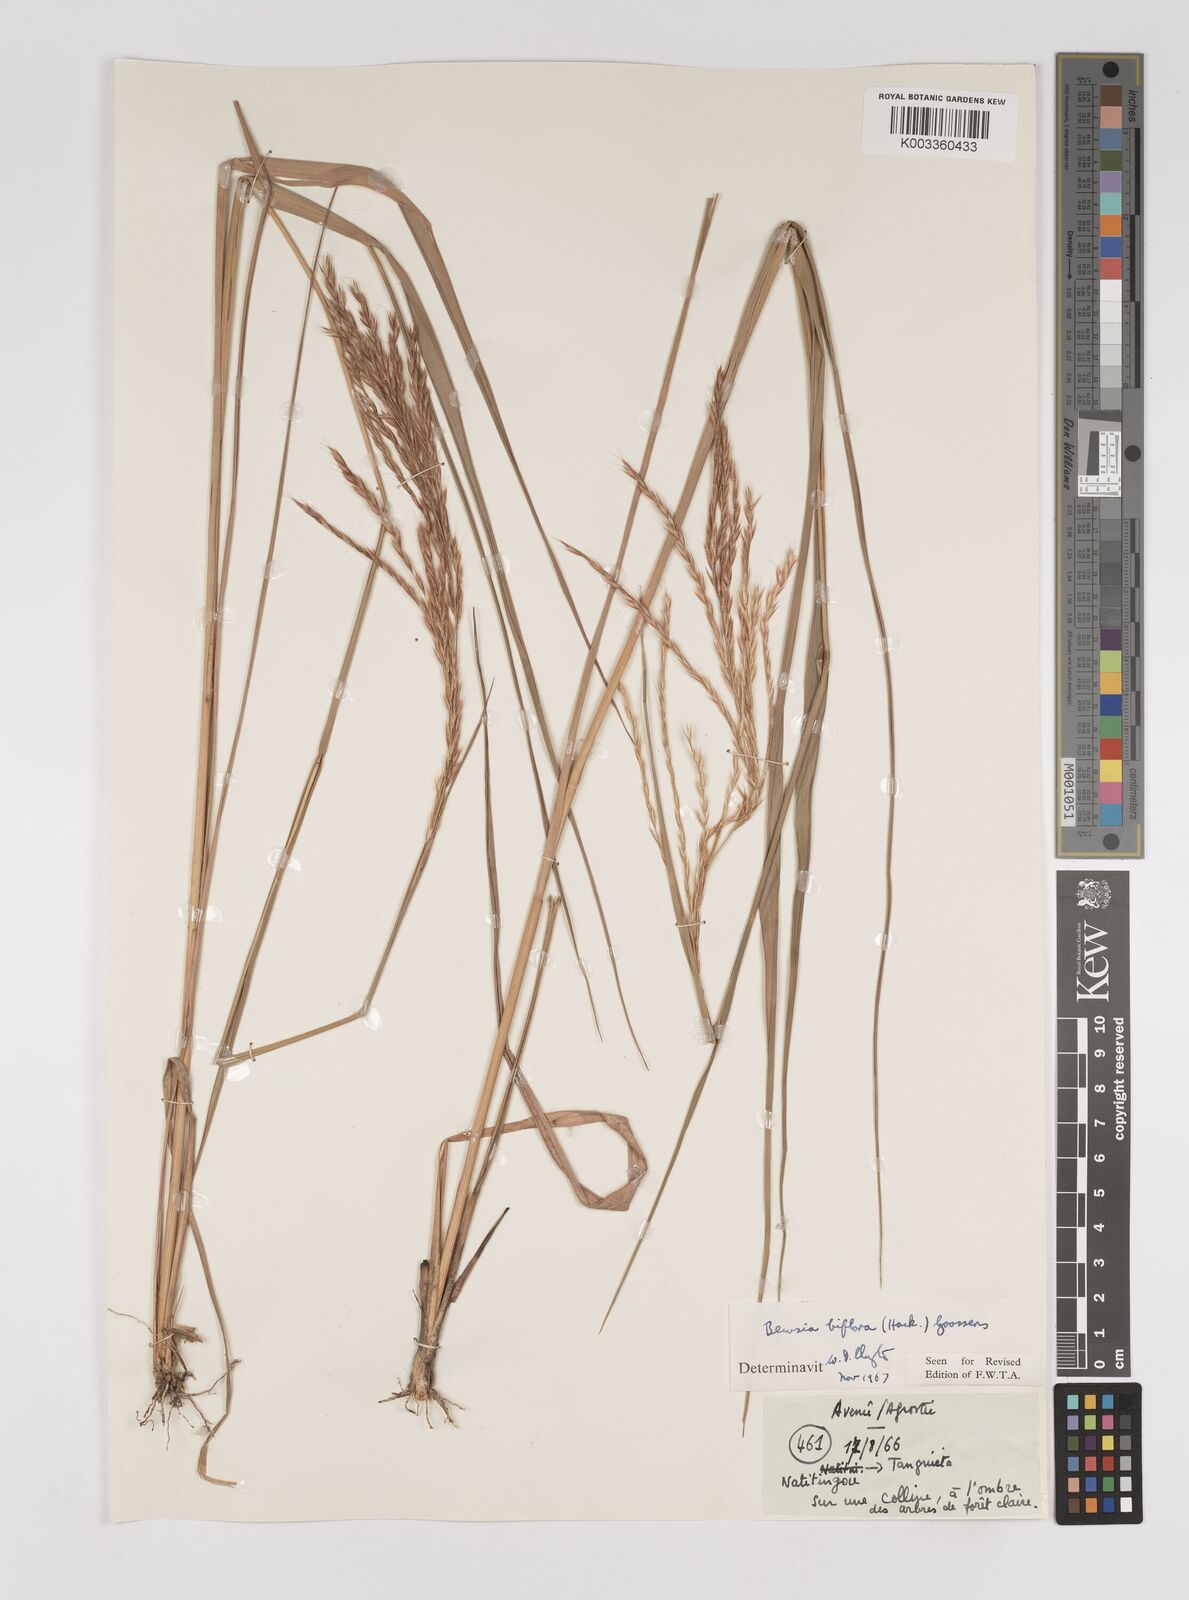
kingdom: Plantae
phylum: Tracheophyta
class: Liliopsida
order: Poales
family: Poaceae
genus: Bewsia
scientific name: Bewsia biflora
